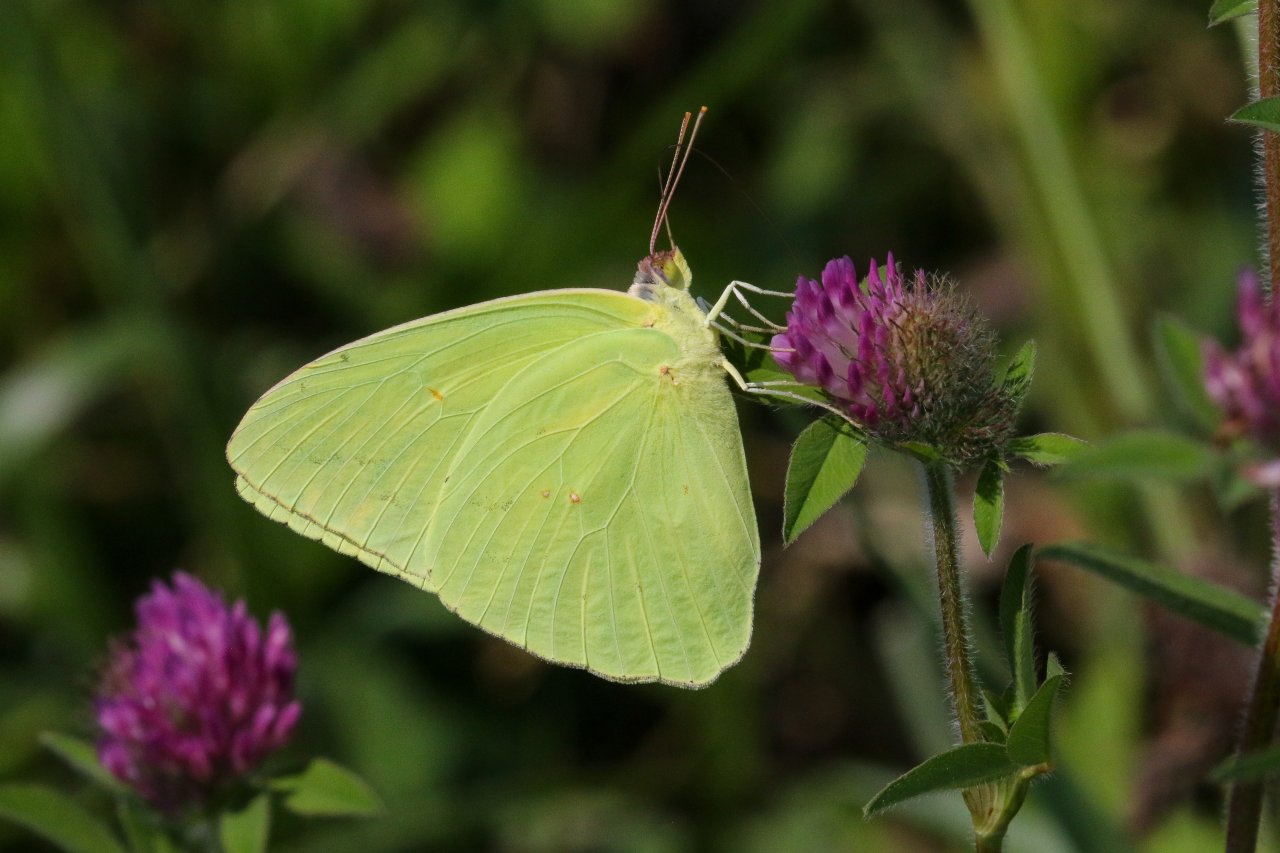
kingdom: Animalia
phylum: Arthropoda
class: Insecta
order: Lepidoptera
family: Pieridae
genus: Phoebis
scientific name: Phoebis sennae
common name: Cloudless Sulphur
